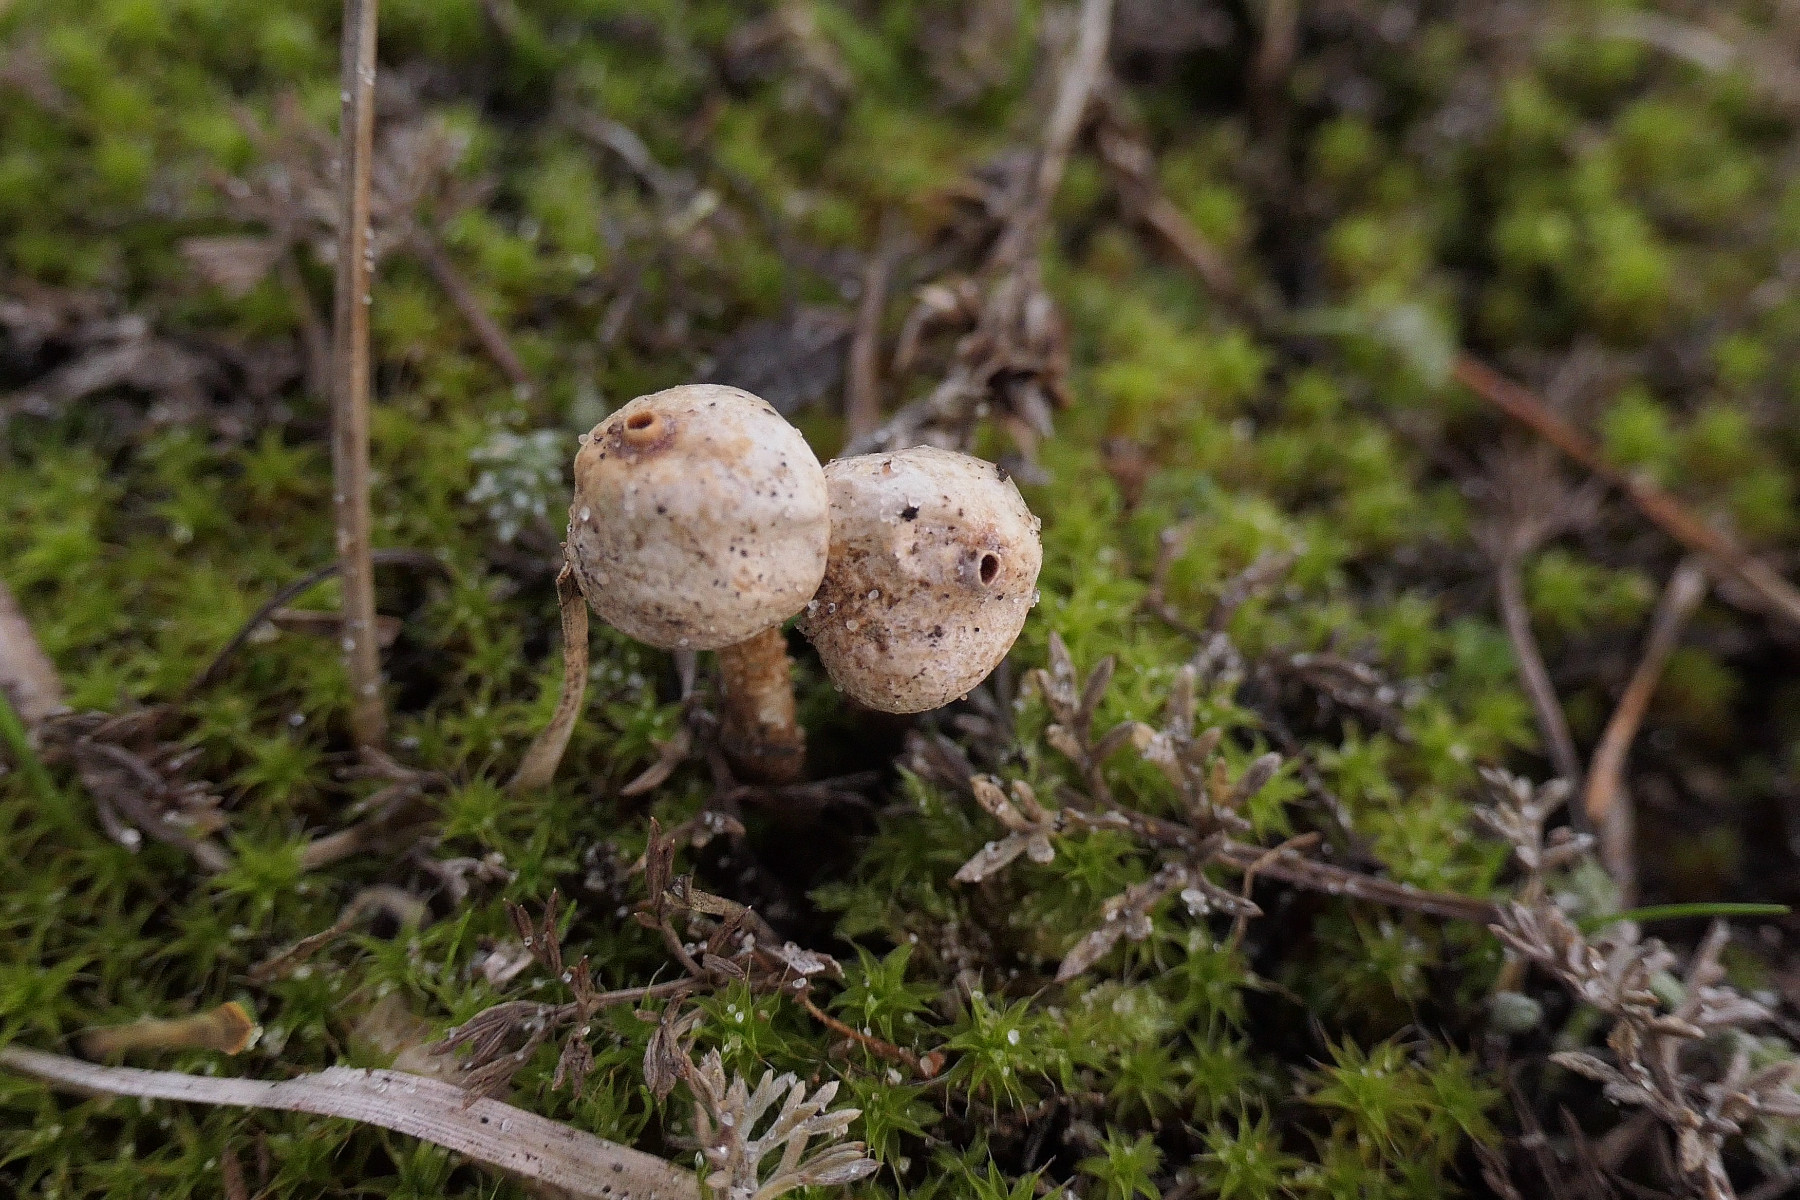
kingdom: Fungi
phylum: Basidiomycota
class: Agaricomycetes
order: Agaricales
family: Agaricaceae
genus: Tulostoma
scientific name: Tulostoma brumale
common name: vinter-stilkbovist
